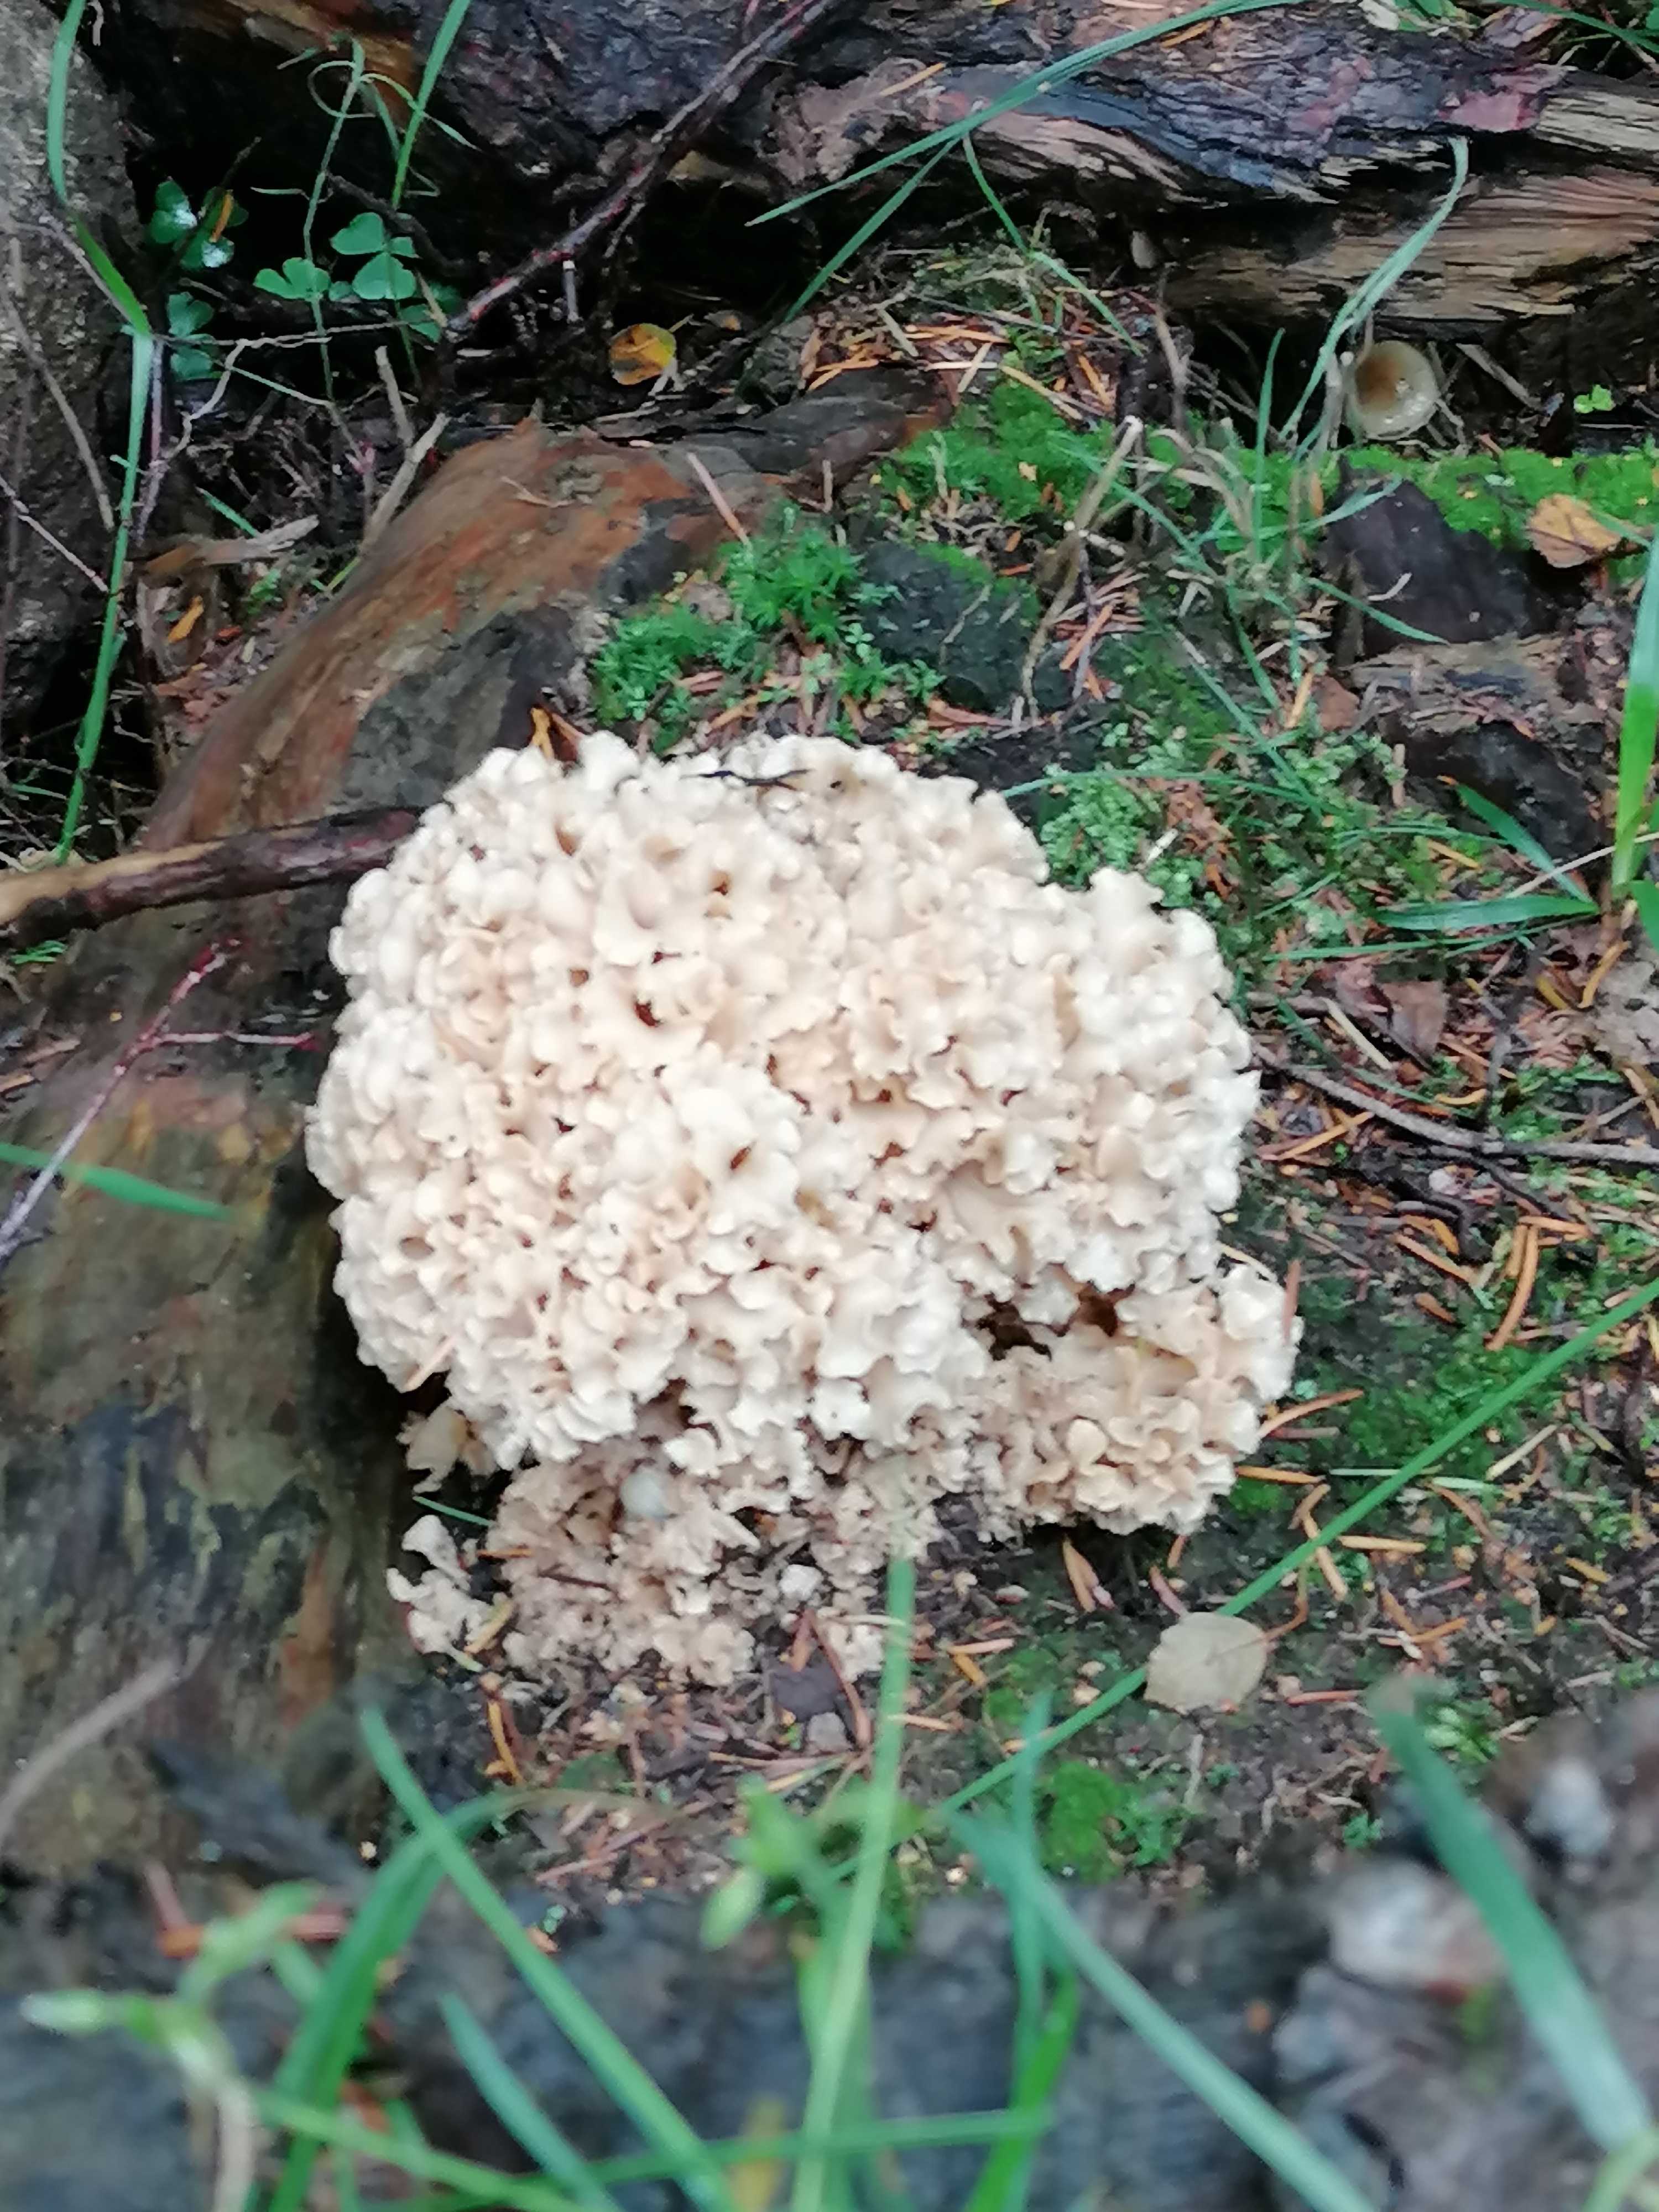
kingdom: Fungi
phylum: Basidiomycota
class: Agaricomycetes
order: Polyporales
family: Sparassidaceae
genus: Sparassis
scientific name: Sparassis crispa
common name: kruset blomkålssvamp
